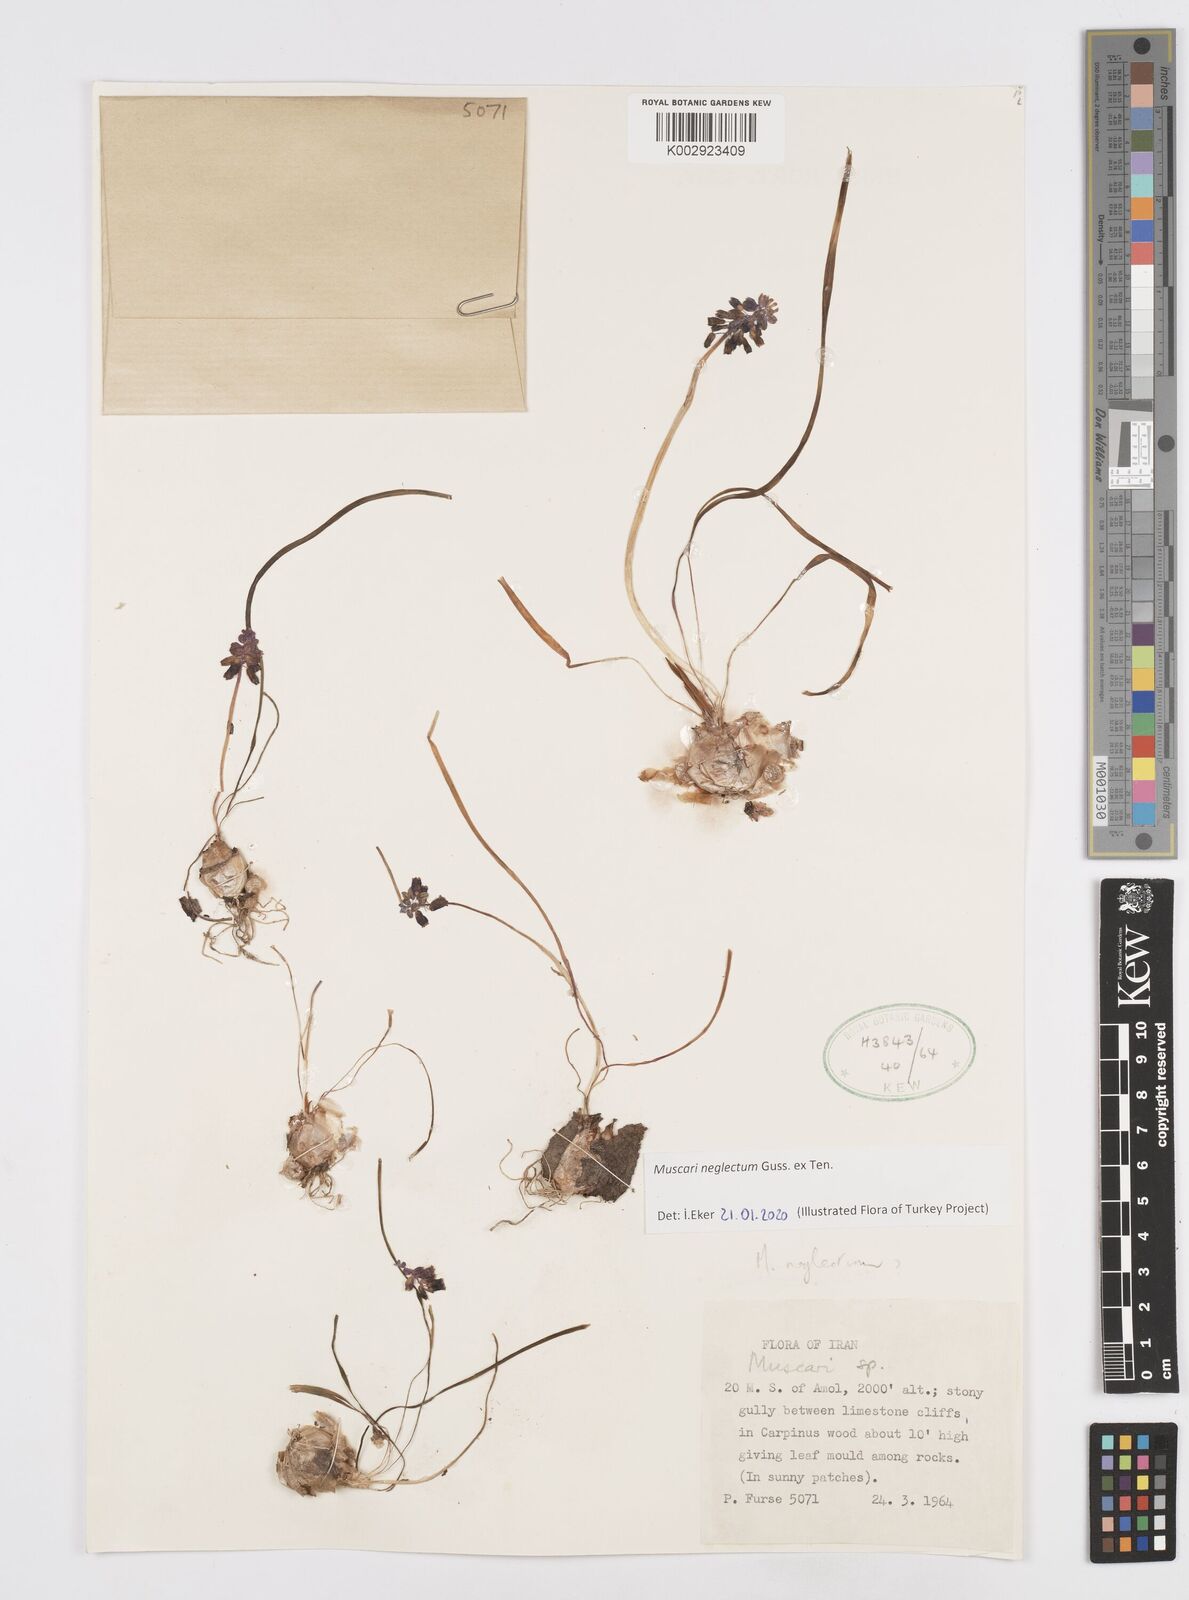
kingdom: Plantae
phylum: Tracheophyta
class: Liliopsida
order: Asparagales
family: Asparagaceae
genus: Muscari
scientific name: Muscari neglectum
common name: Grape-hyacinth
